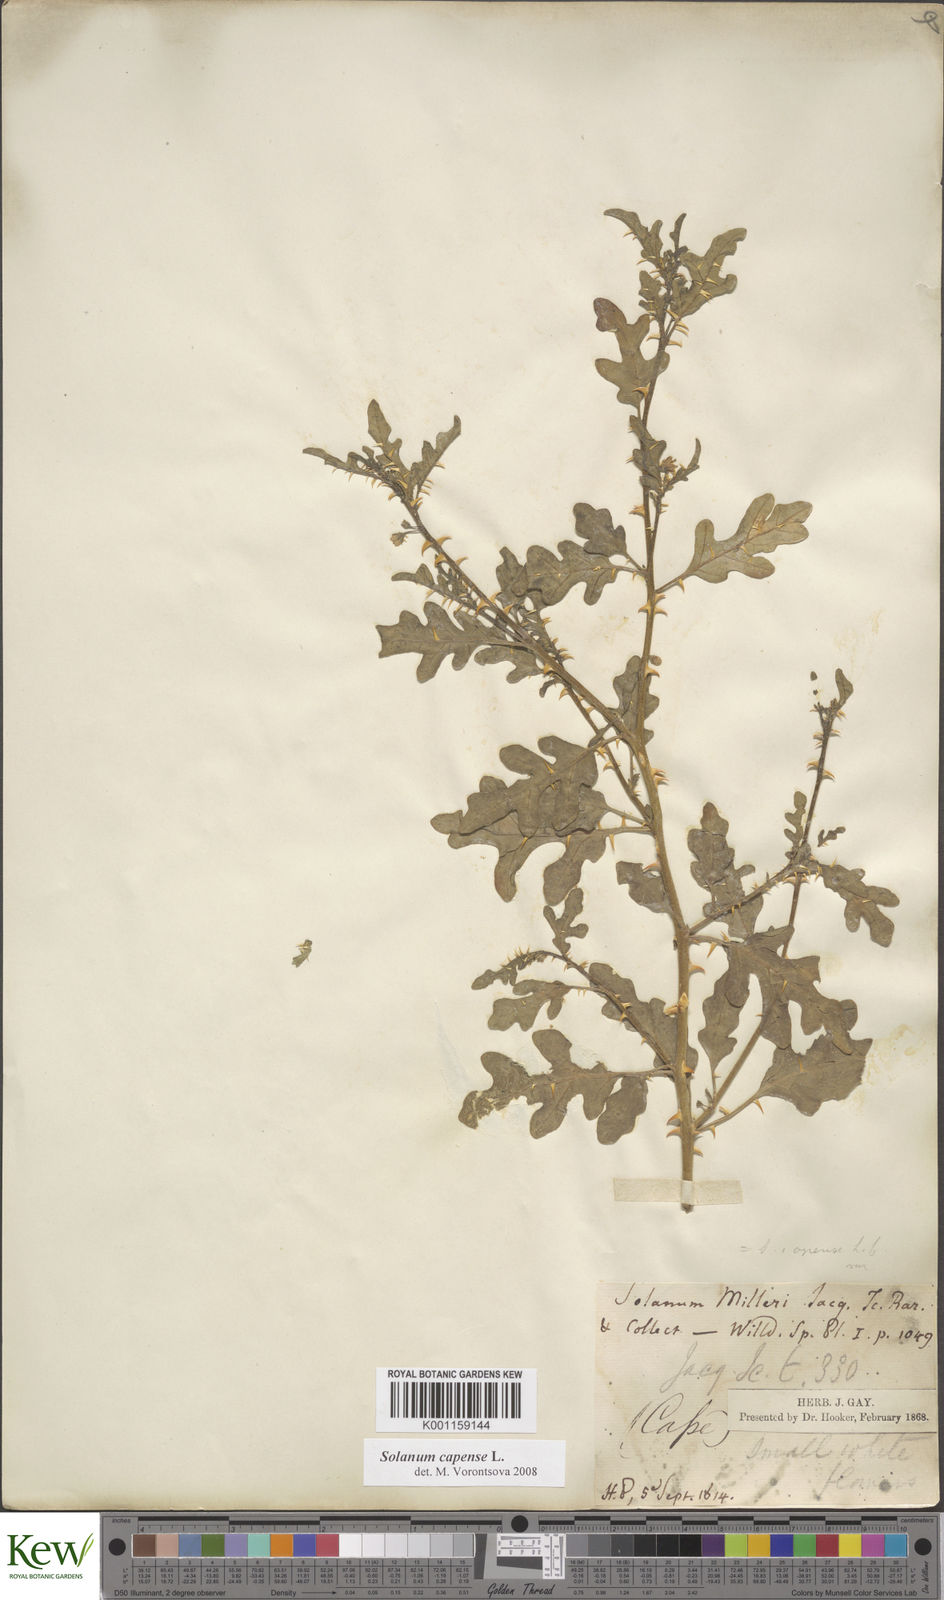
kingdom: Plantae
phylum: Tracheophyta
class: Magnoliopsida
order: Solanales
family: Solanaceae
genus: Solanum
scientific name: Solanum capense
